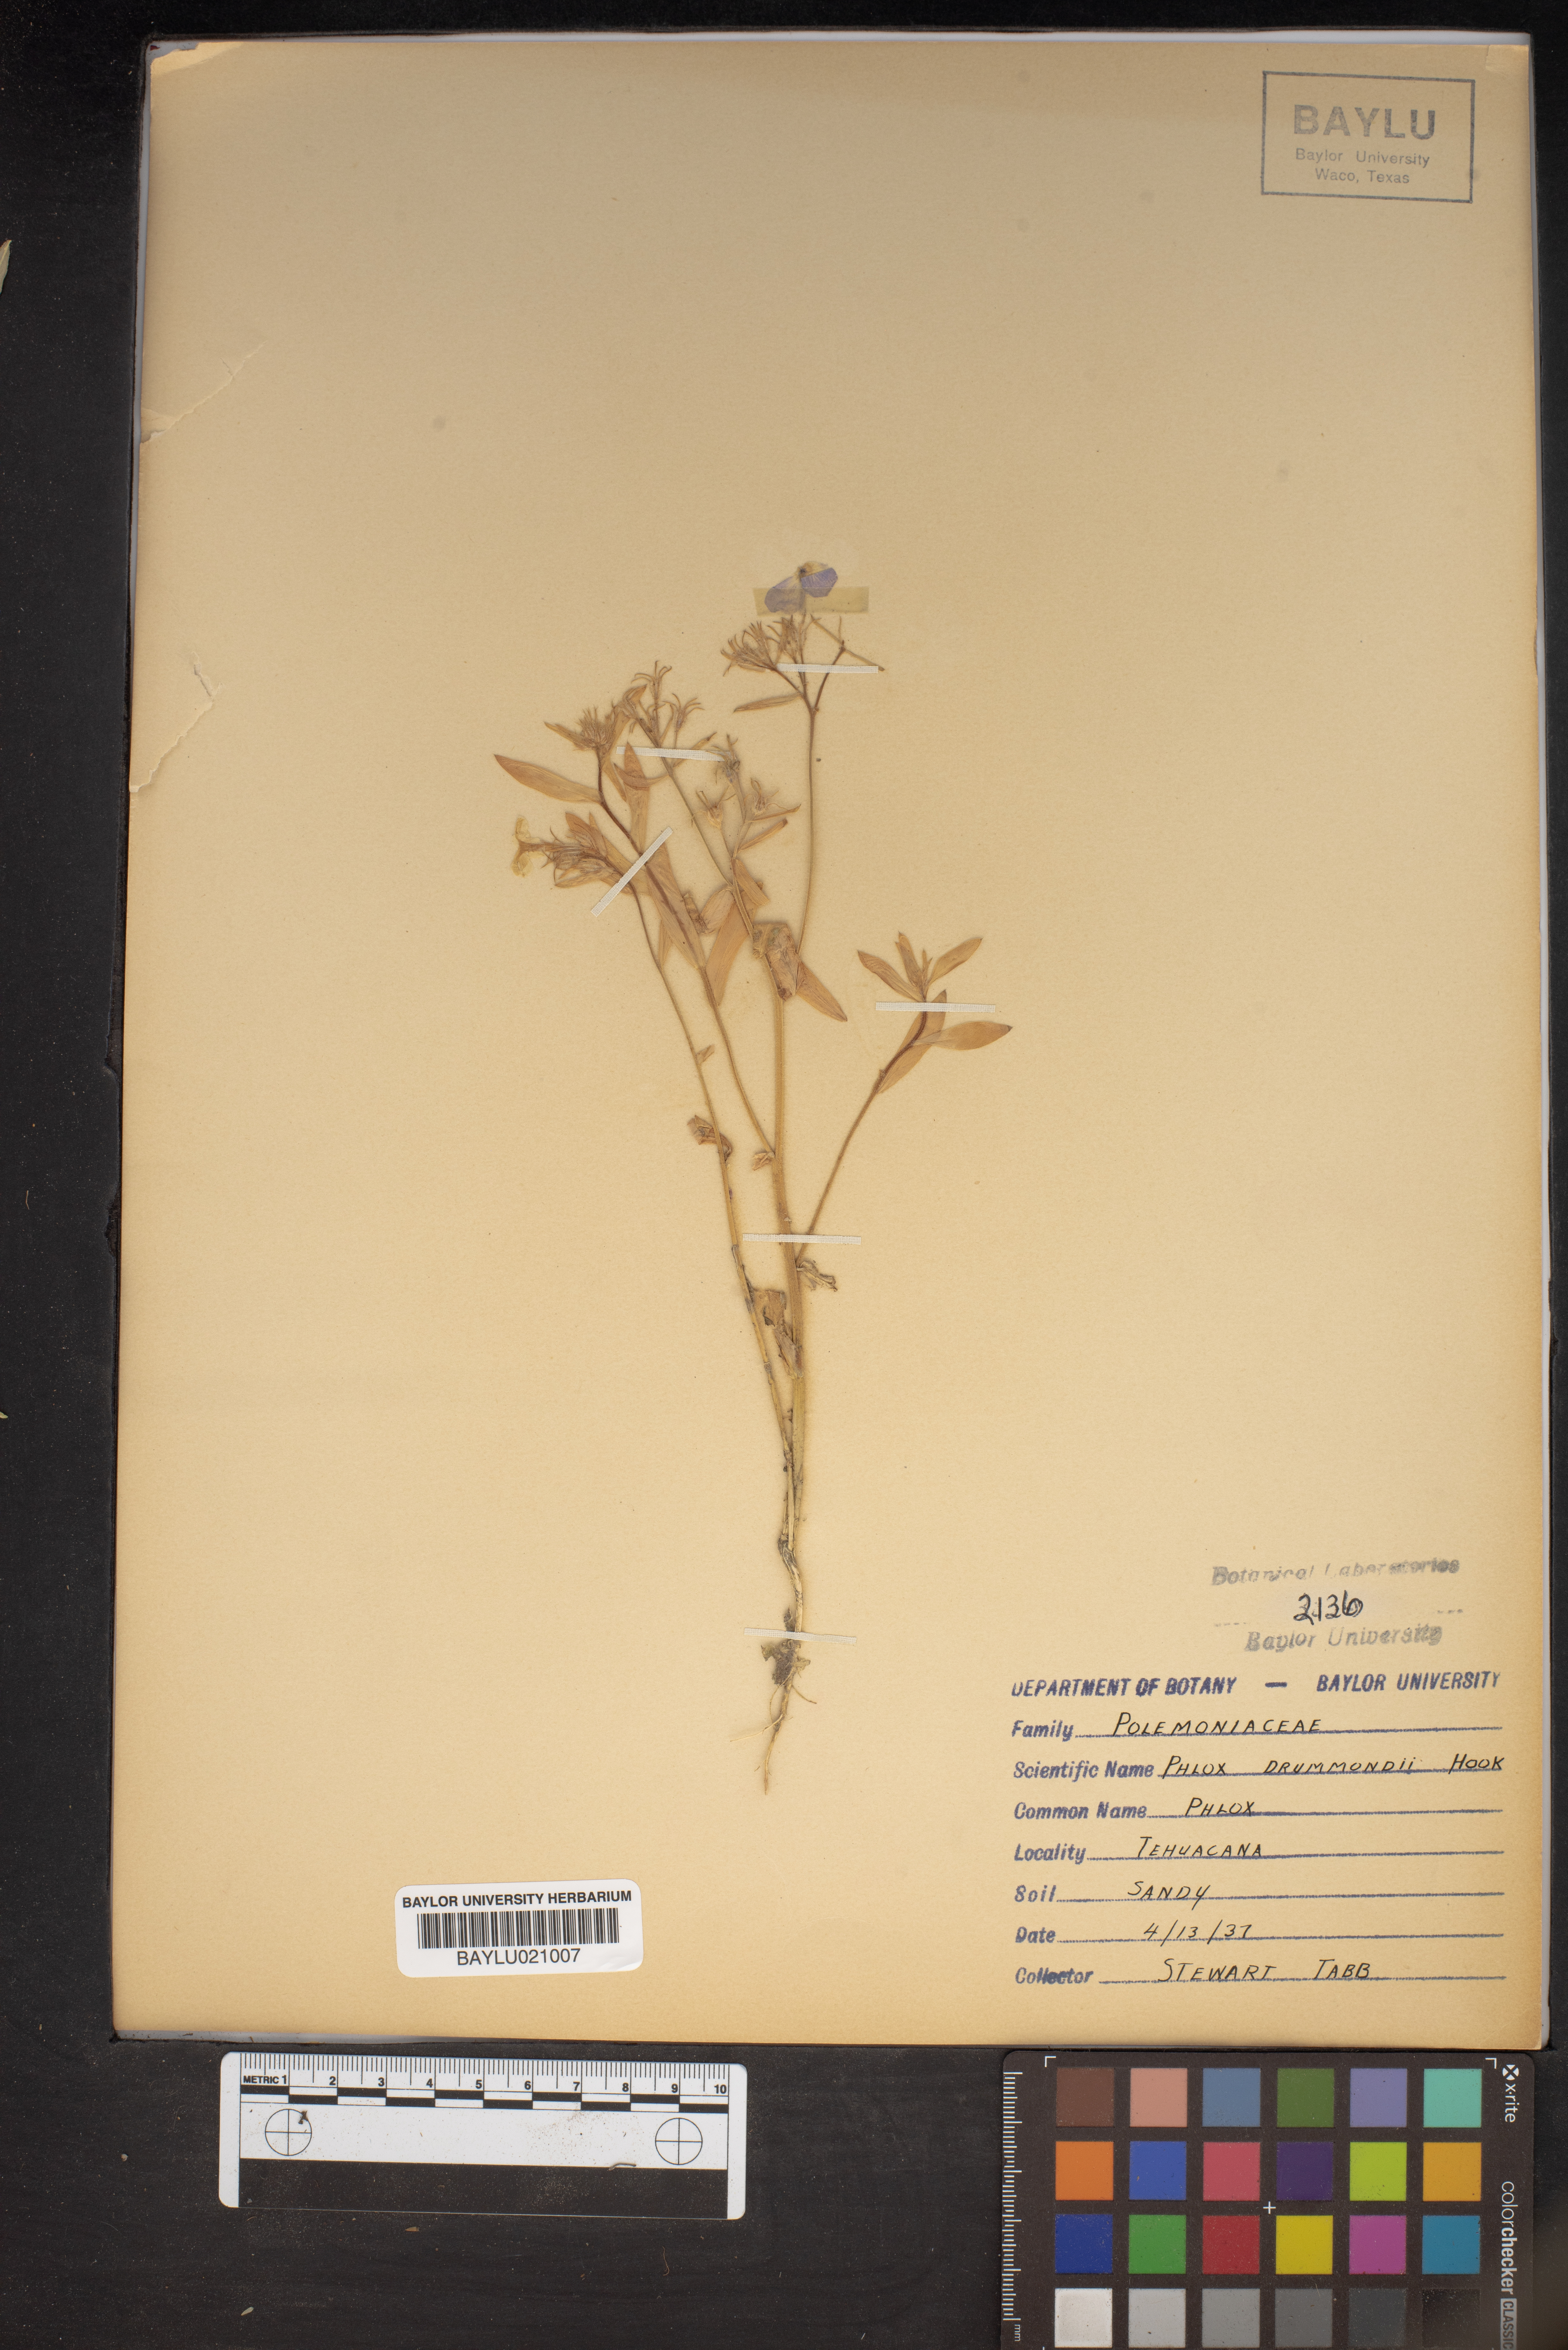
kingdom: Plantae
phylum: Tracheophyta
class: Magnoliopsida
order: Ericales
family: Polemoniaceae
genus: Phlox
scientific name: Phlox drummondii
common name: Drummond's phlox
